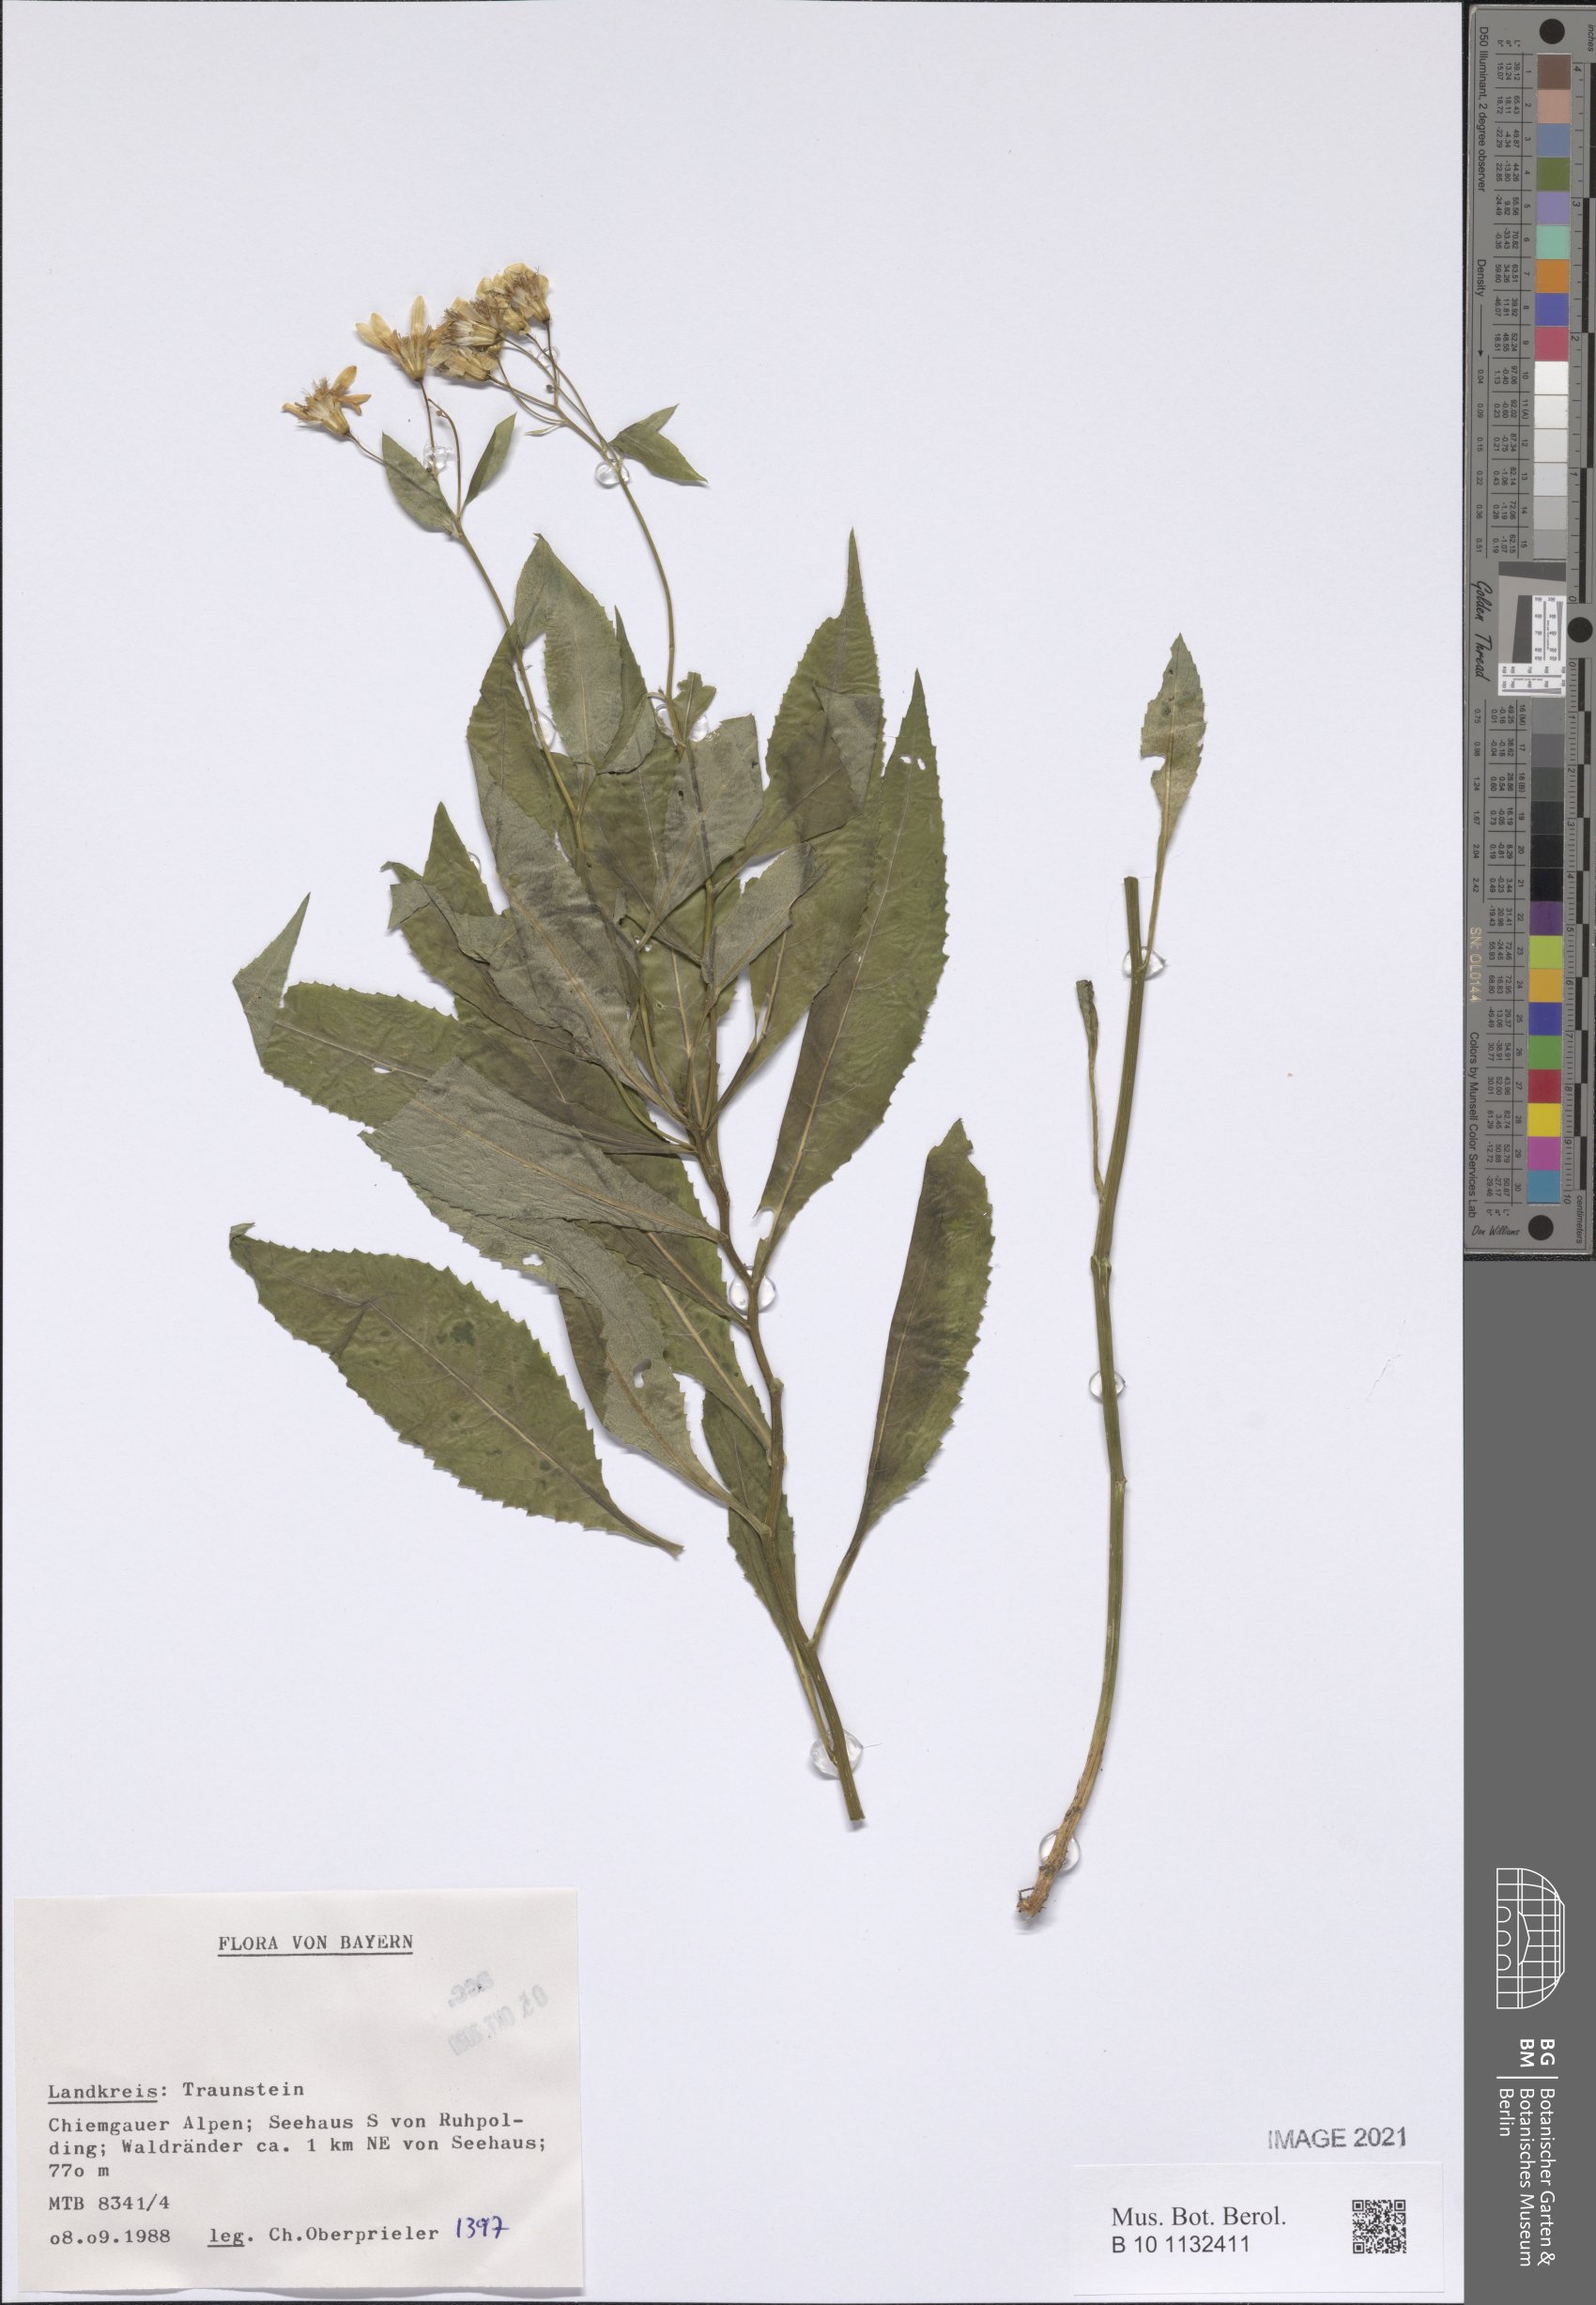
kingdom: Plantae
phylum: Tracheophyta
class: Magnoliopsida
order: Asterales
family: Asteraceae
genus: Senecio
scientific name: Senecio
